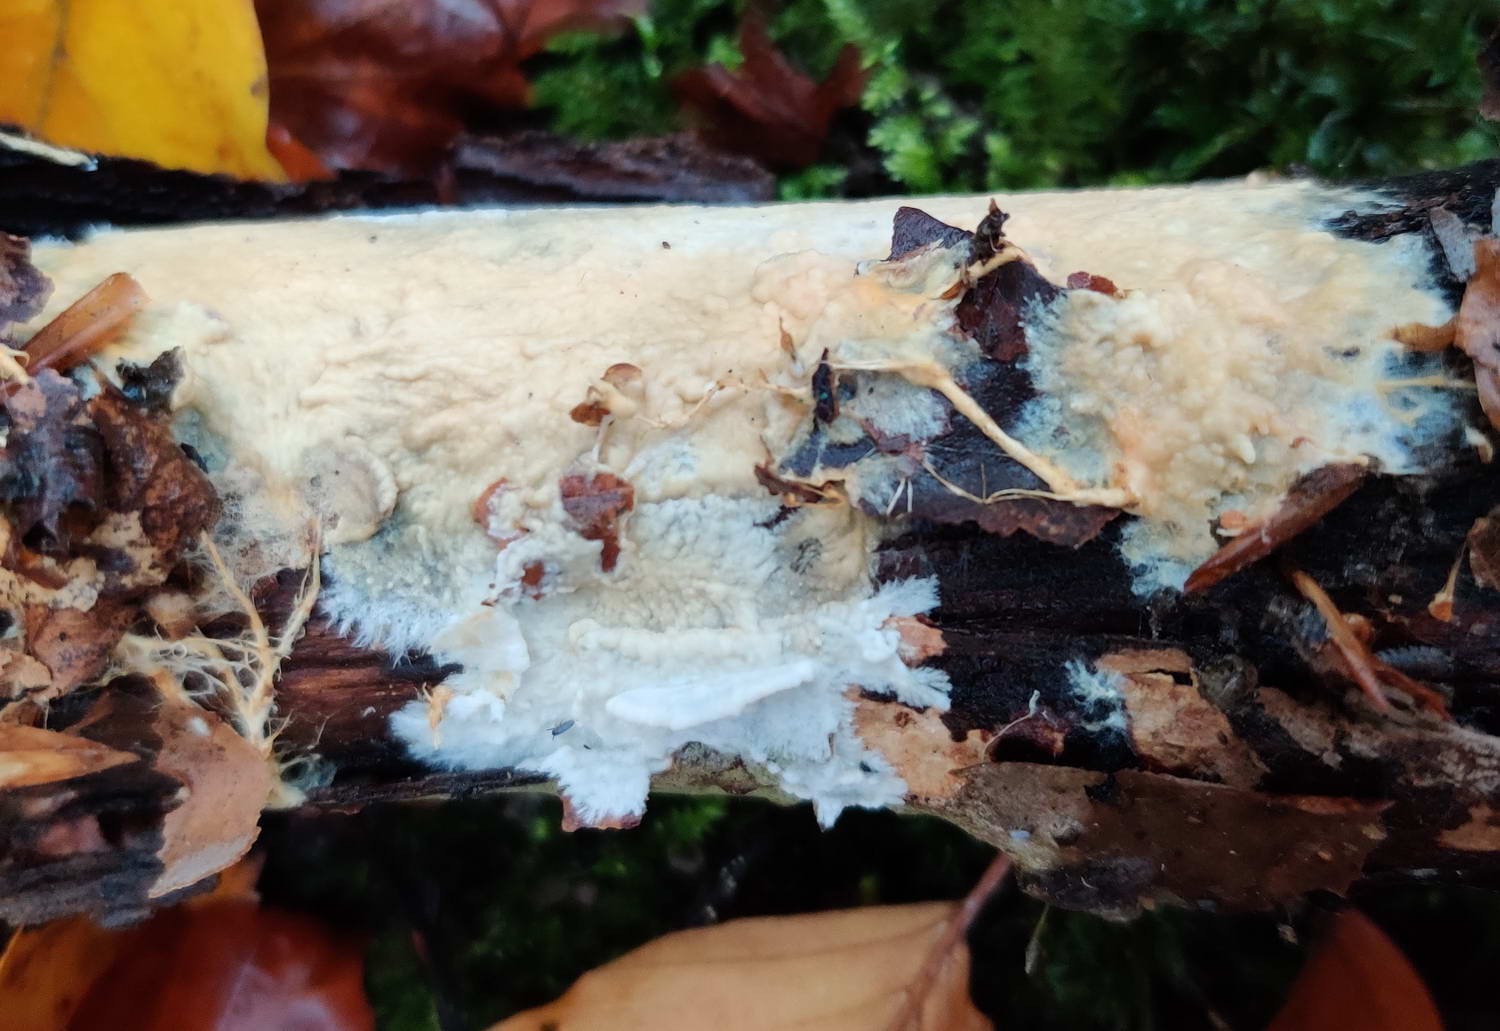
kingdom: Fungi
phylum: Basidiomycota
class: Agaricomycetes
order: Polyporales
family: Phanerochaetaceae
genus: Phanerochaete
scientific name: Phanerochaete
